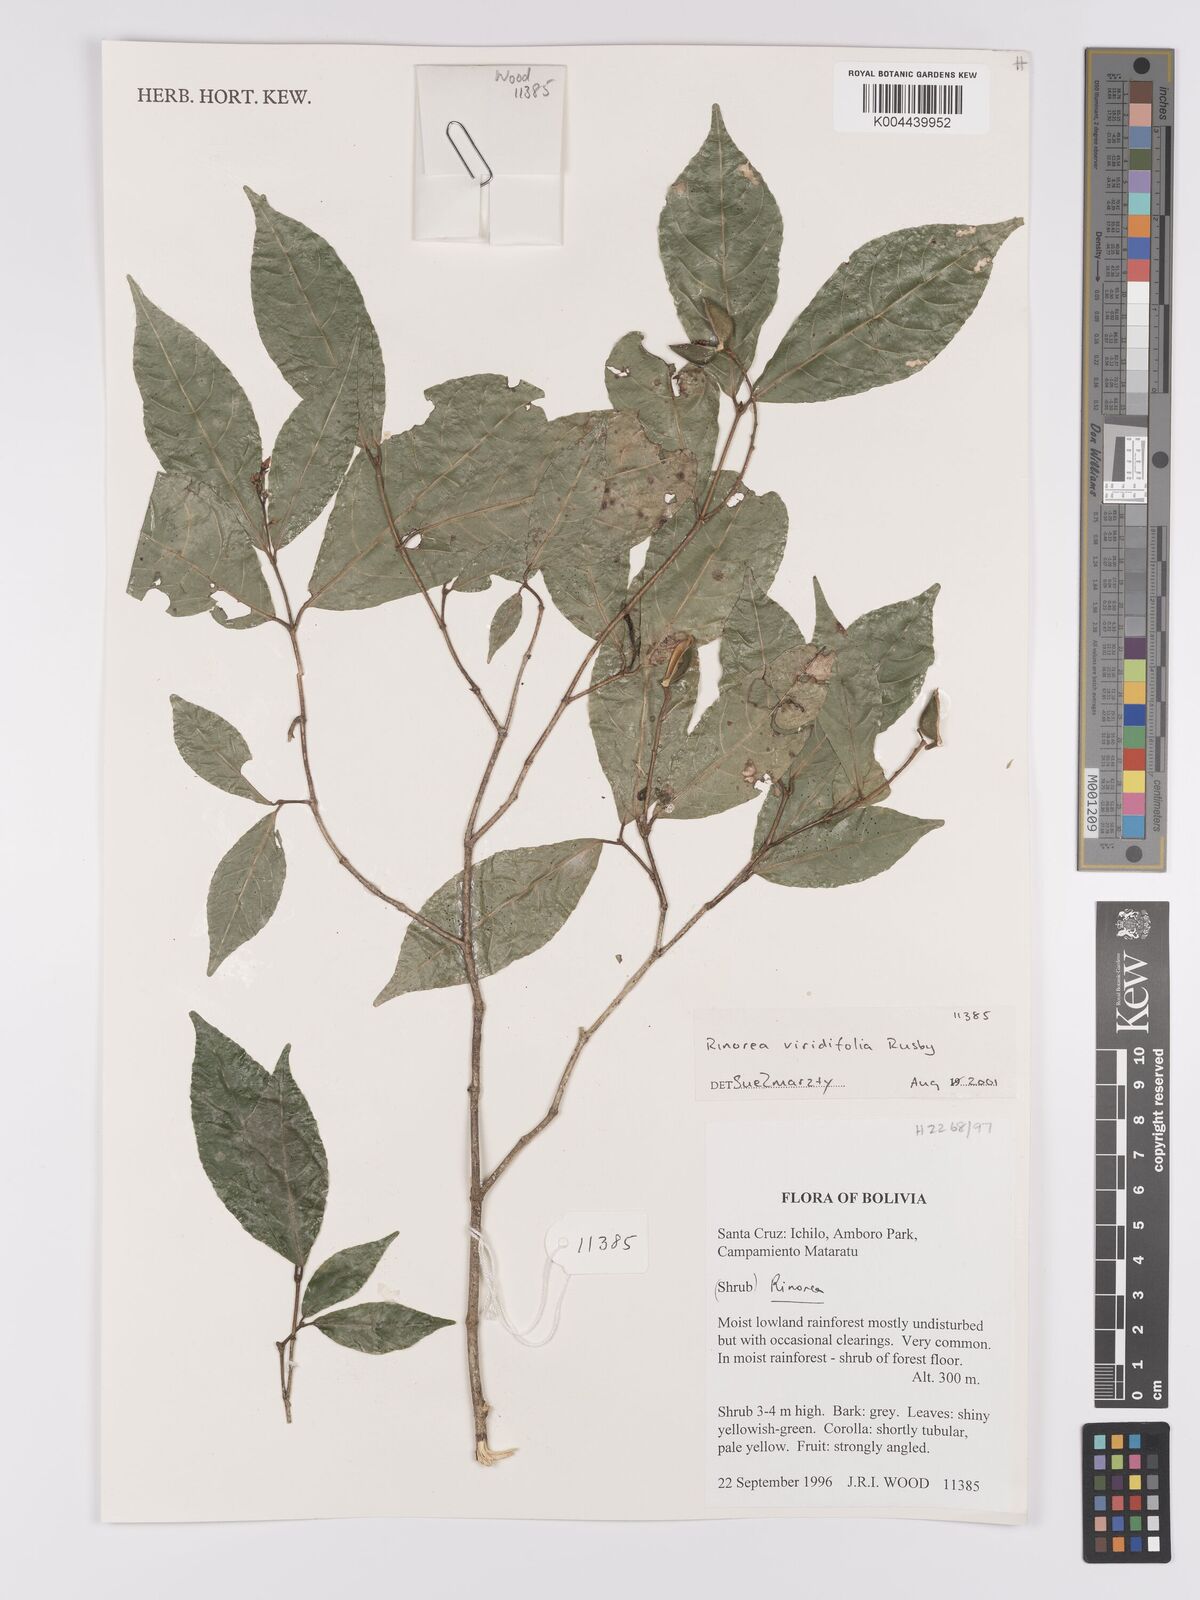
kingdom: Plantae
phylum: Tracheophyta
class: Magnoliopsida
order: Malpighiales
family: Violaceae
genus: Rinorea
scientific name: Rinorea viridifolia
